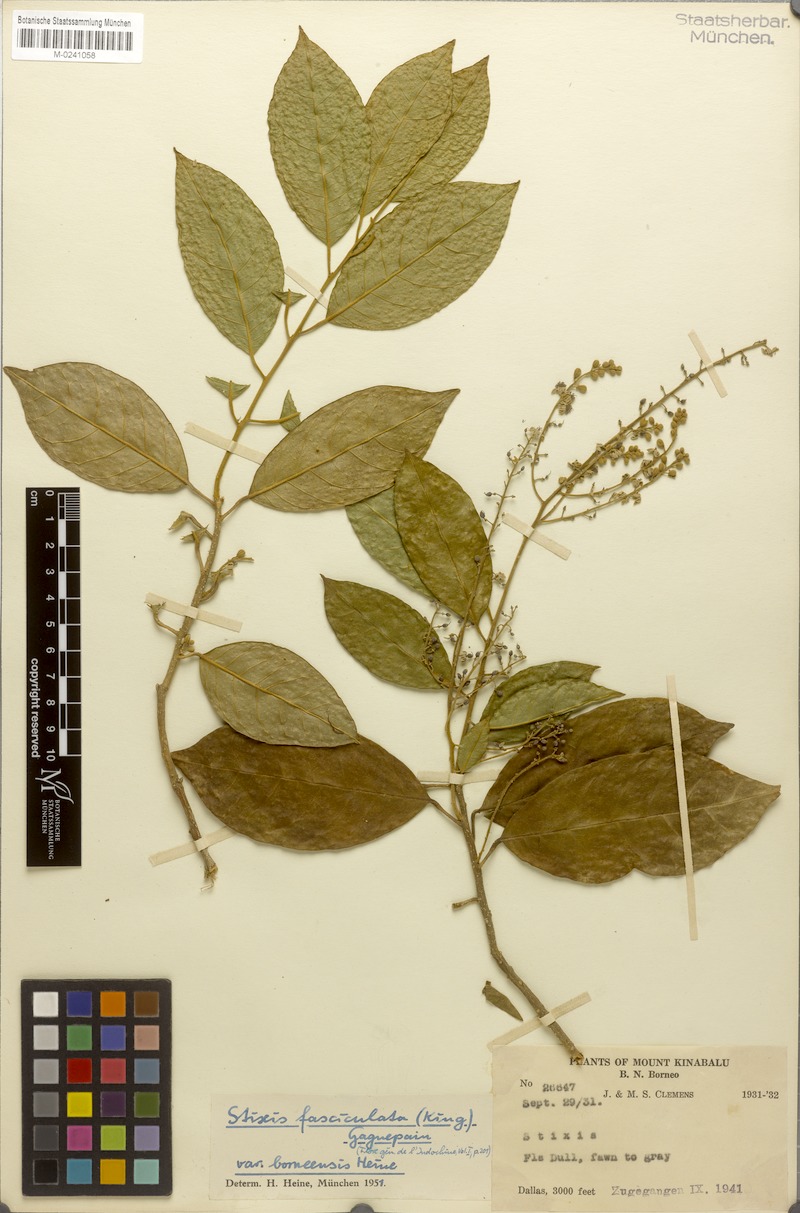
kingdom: Plantae
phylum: Tracheophyta
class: Magnoliopsida
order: Brassicales
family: Stixaceae
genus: Stixis
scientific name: Stixis ovata
